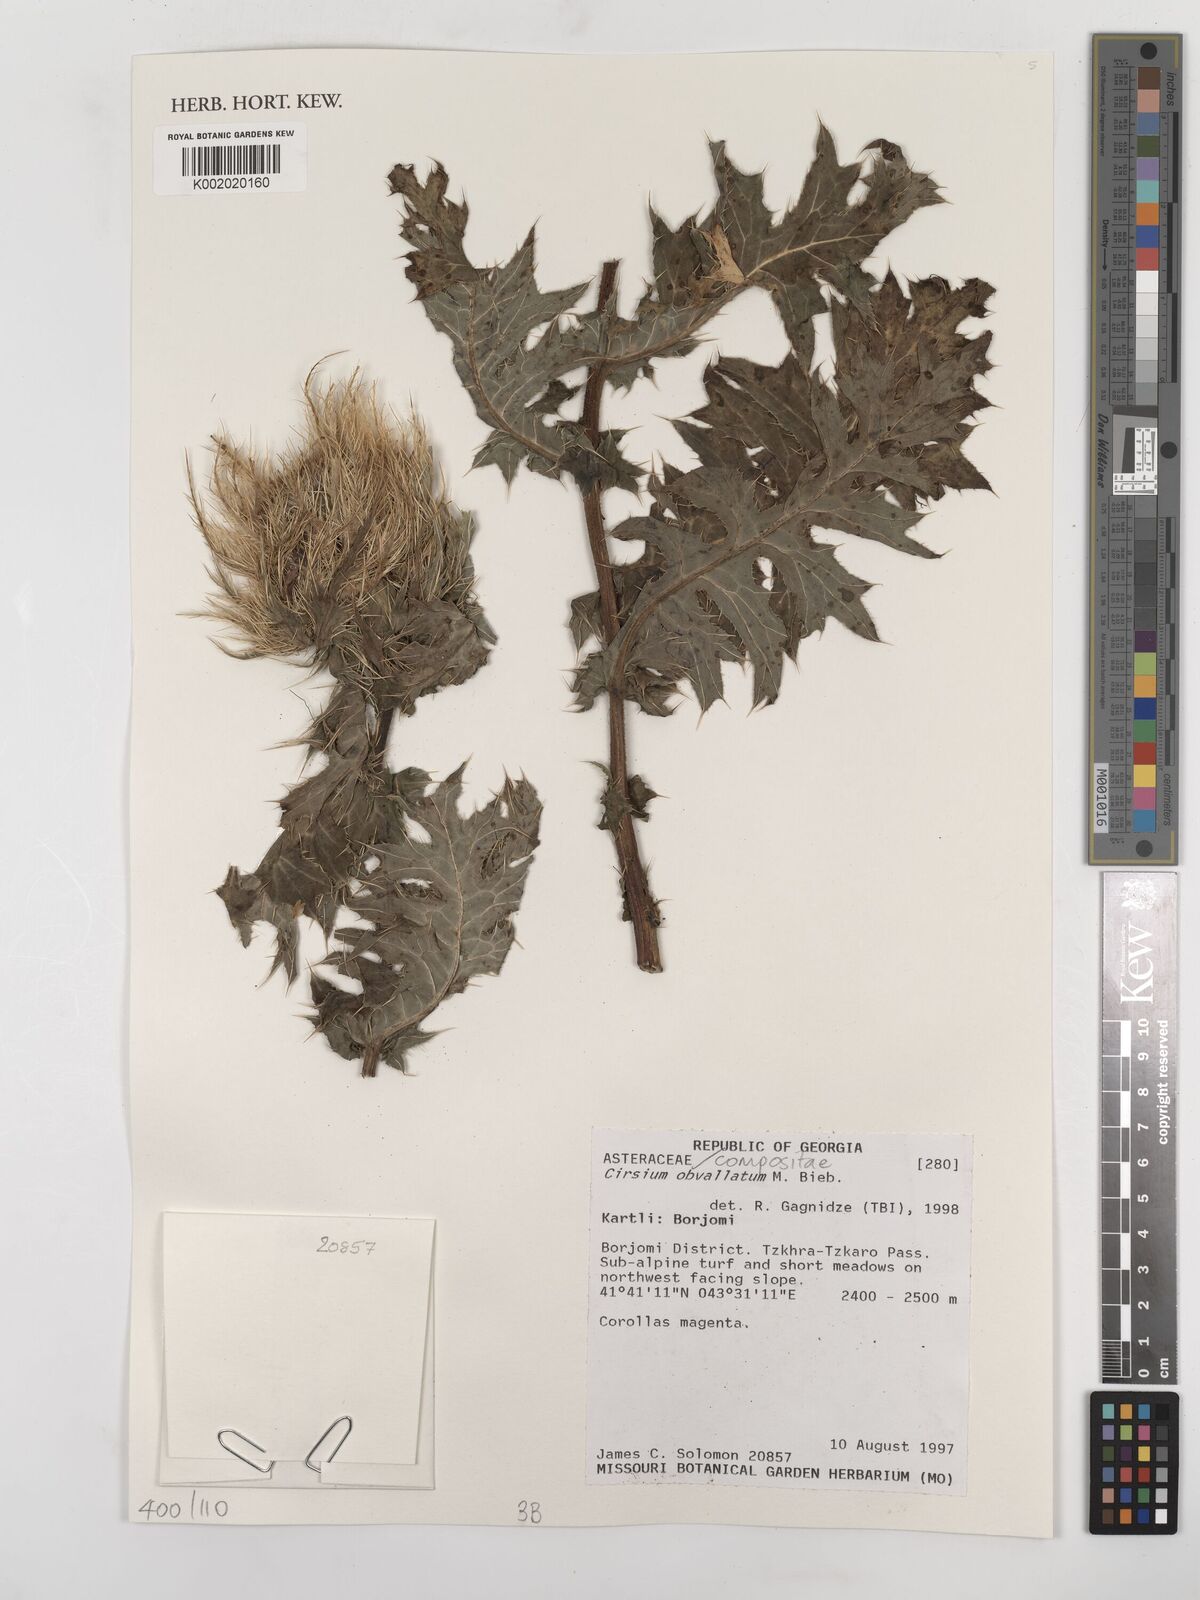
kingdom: Plantae
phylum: Tracheophyta
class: Magnoliopsida
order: Asterales
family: Asteraceae
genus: Cirsium
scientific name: Cirsium obvallatum
